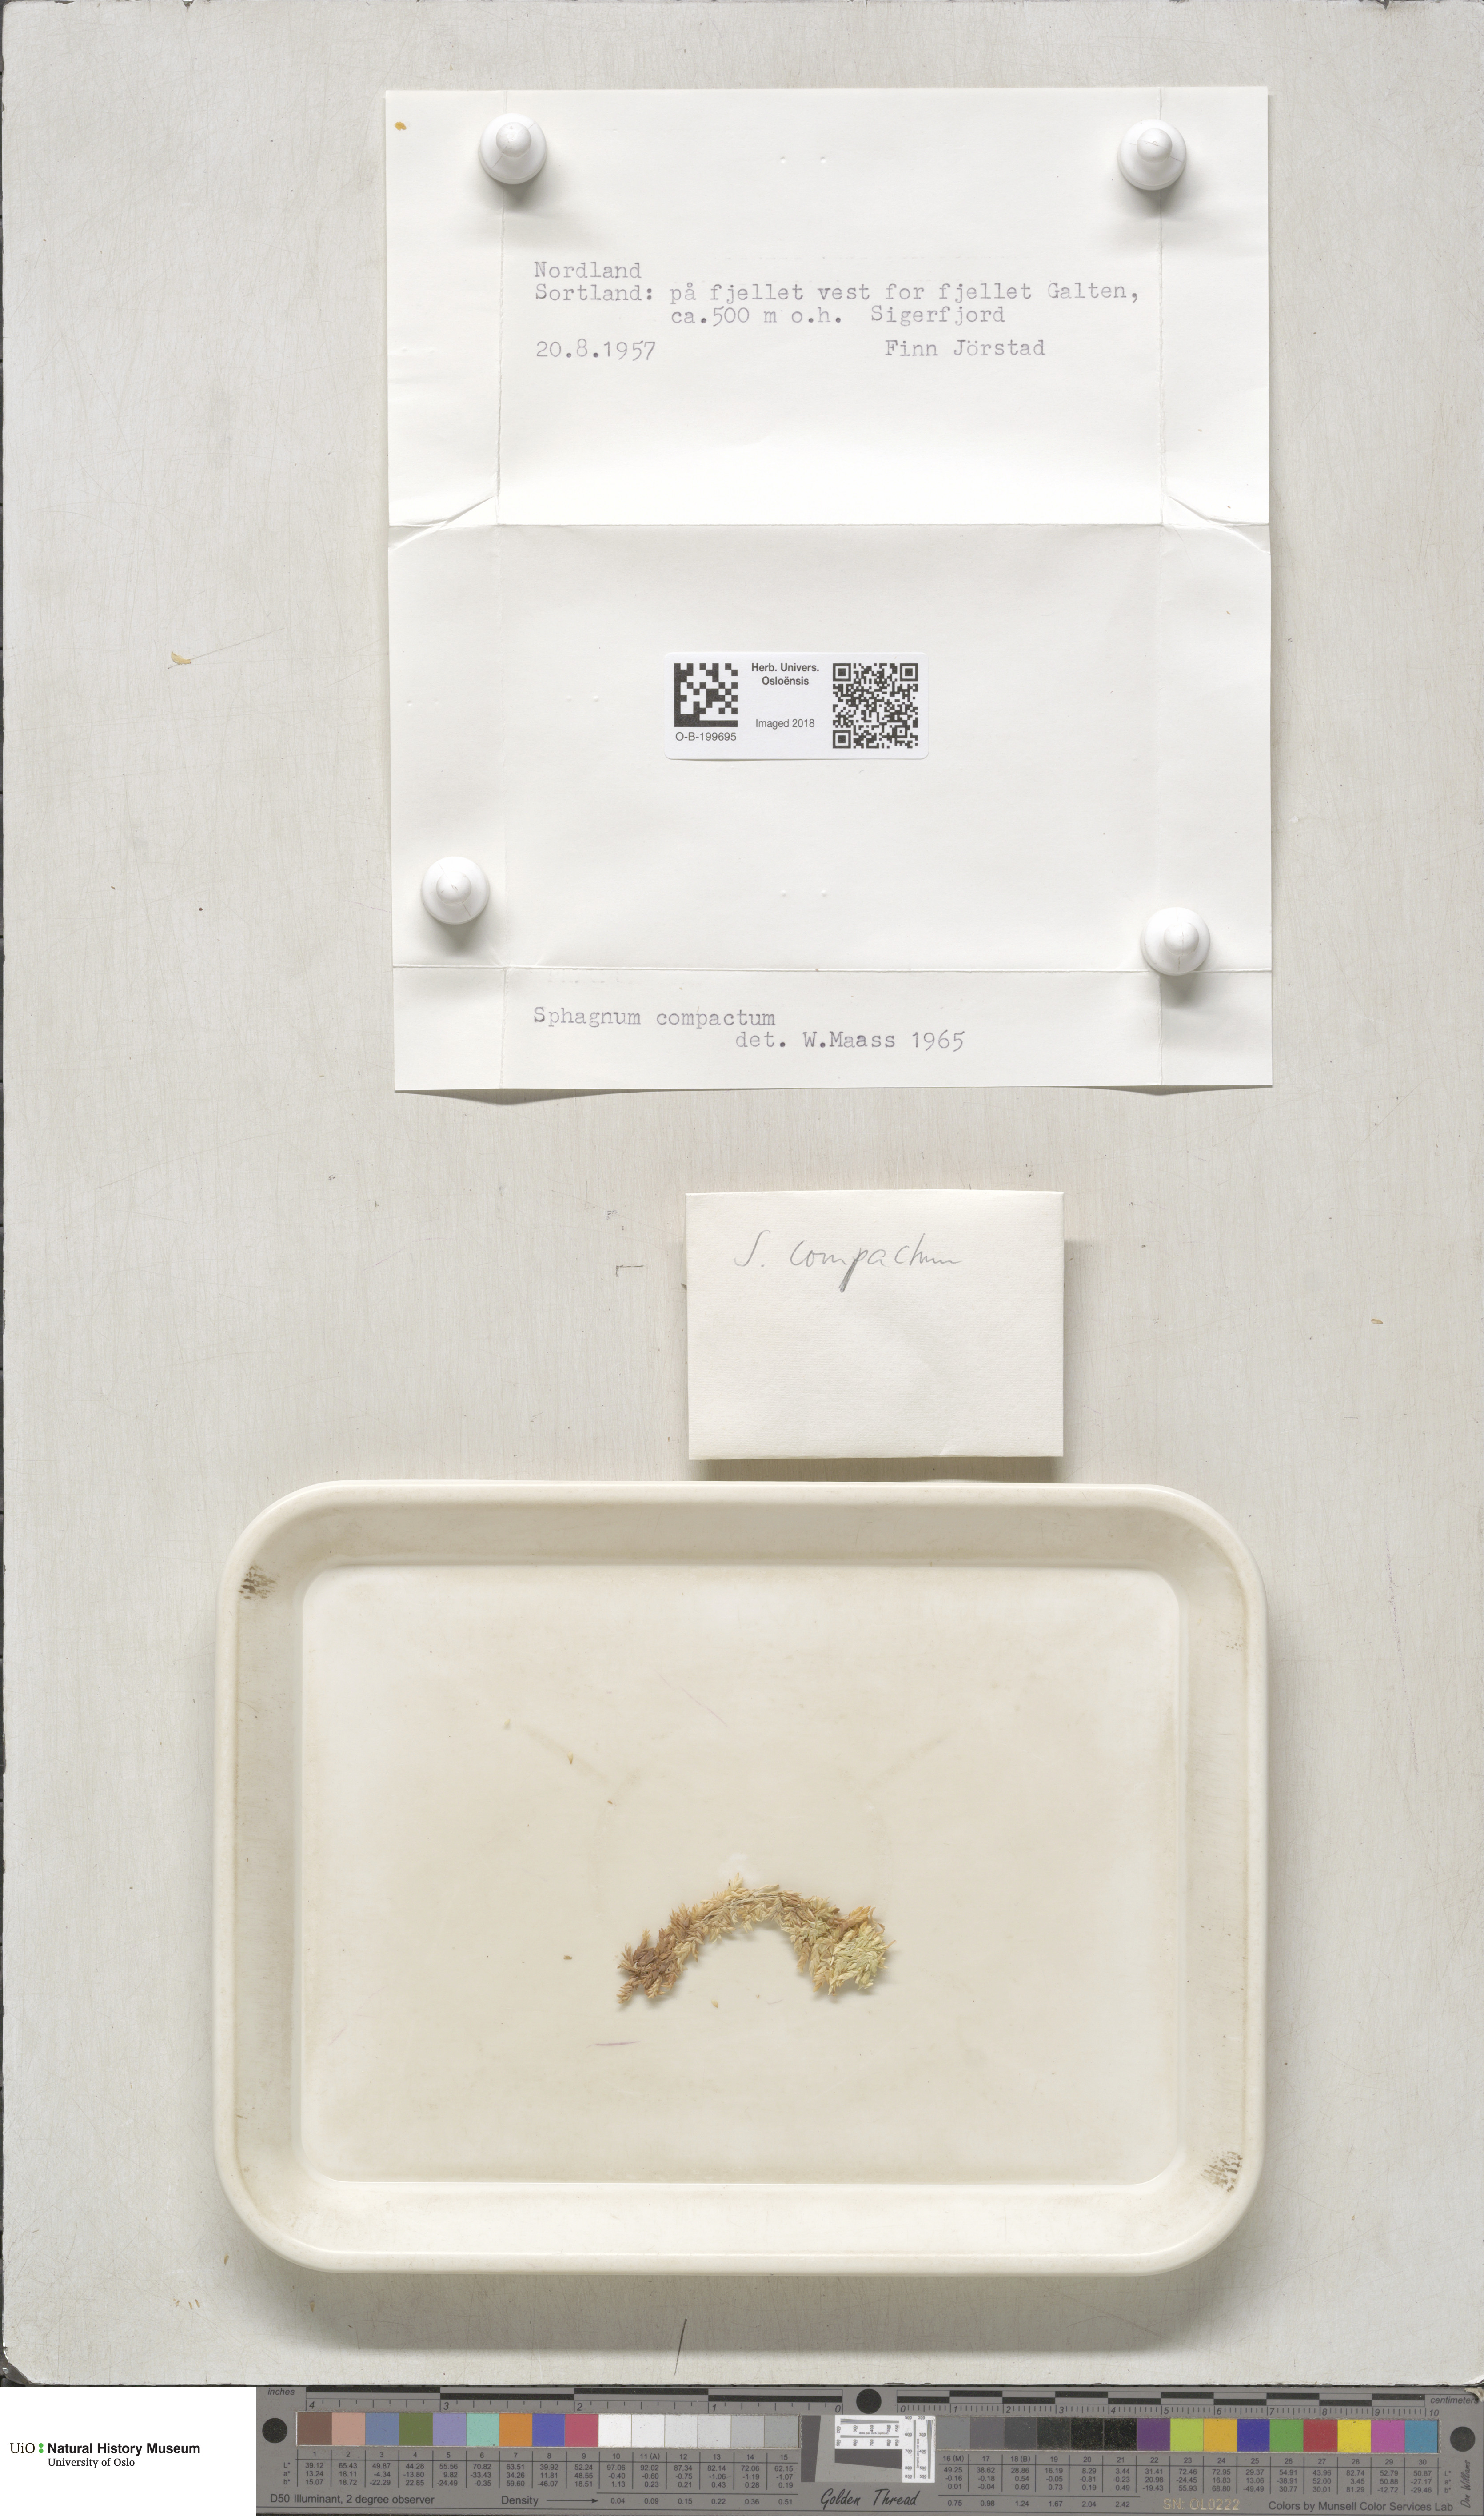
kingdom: Plantae
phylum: Bryophyta
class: Sphagnopsida
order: Sphagnales
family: Sphagnaceae
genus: Sphagnum
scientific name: Sphagnum compactum
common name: Compact peat moss
